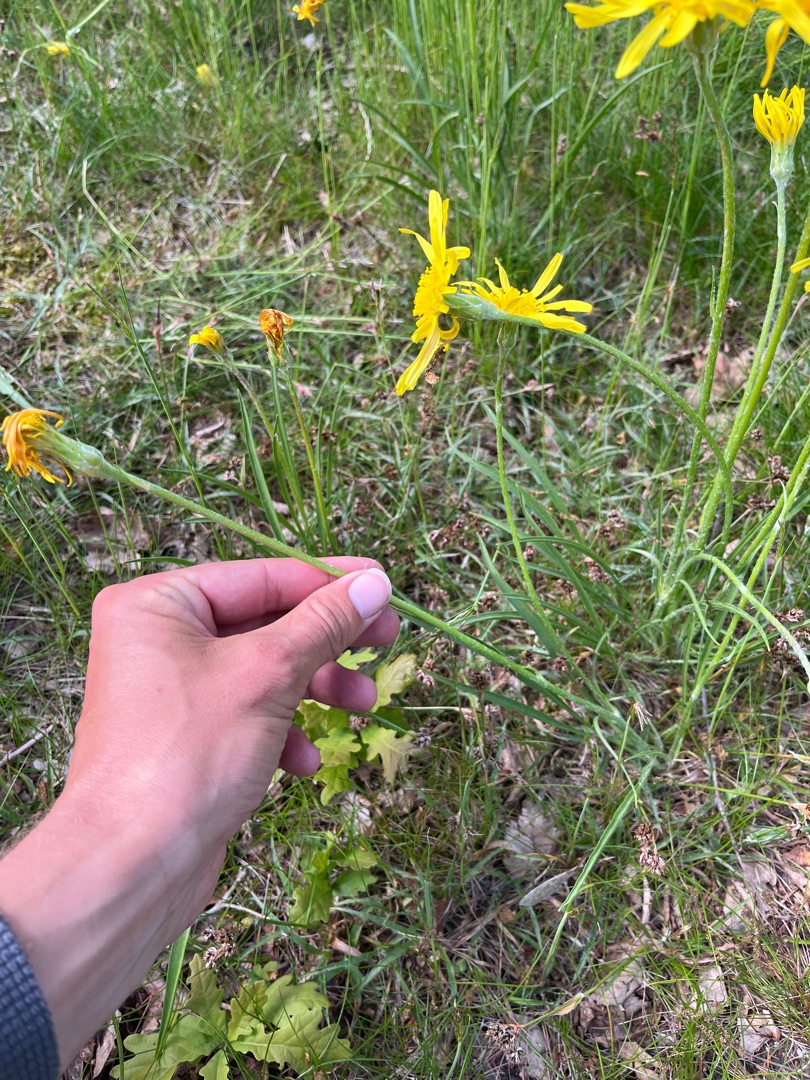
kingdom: Plantae
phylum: Tracheophyta
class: Magnoliopsida
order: Asterales
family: Asteraceae
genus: Scorzonera
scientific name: Scorzonera humilis
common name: Lav skorsoner
